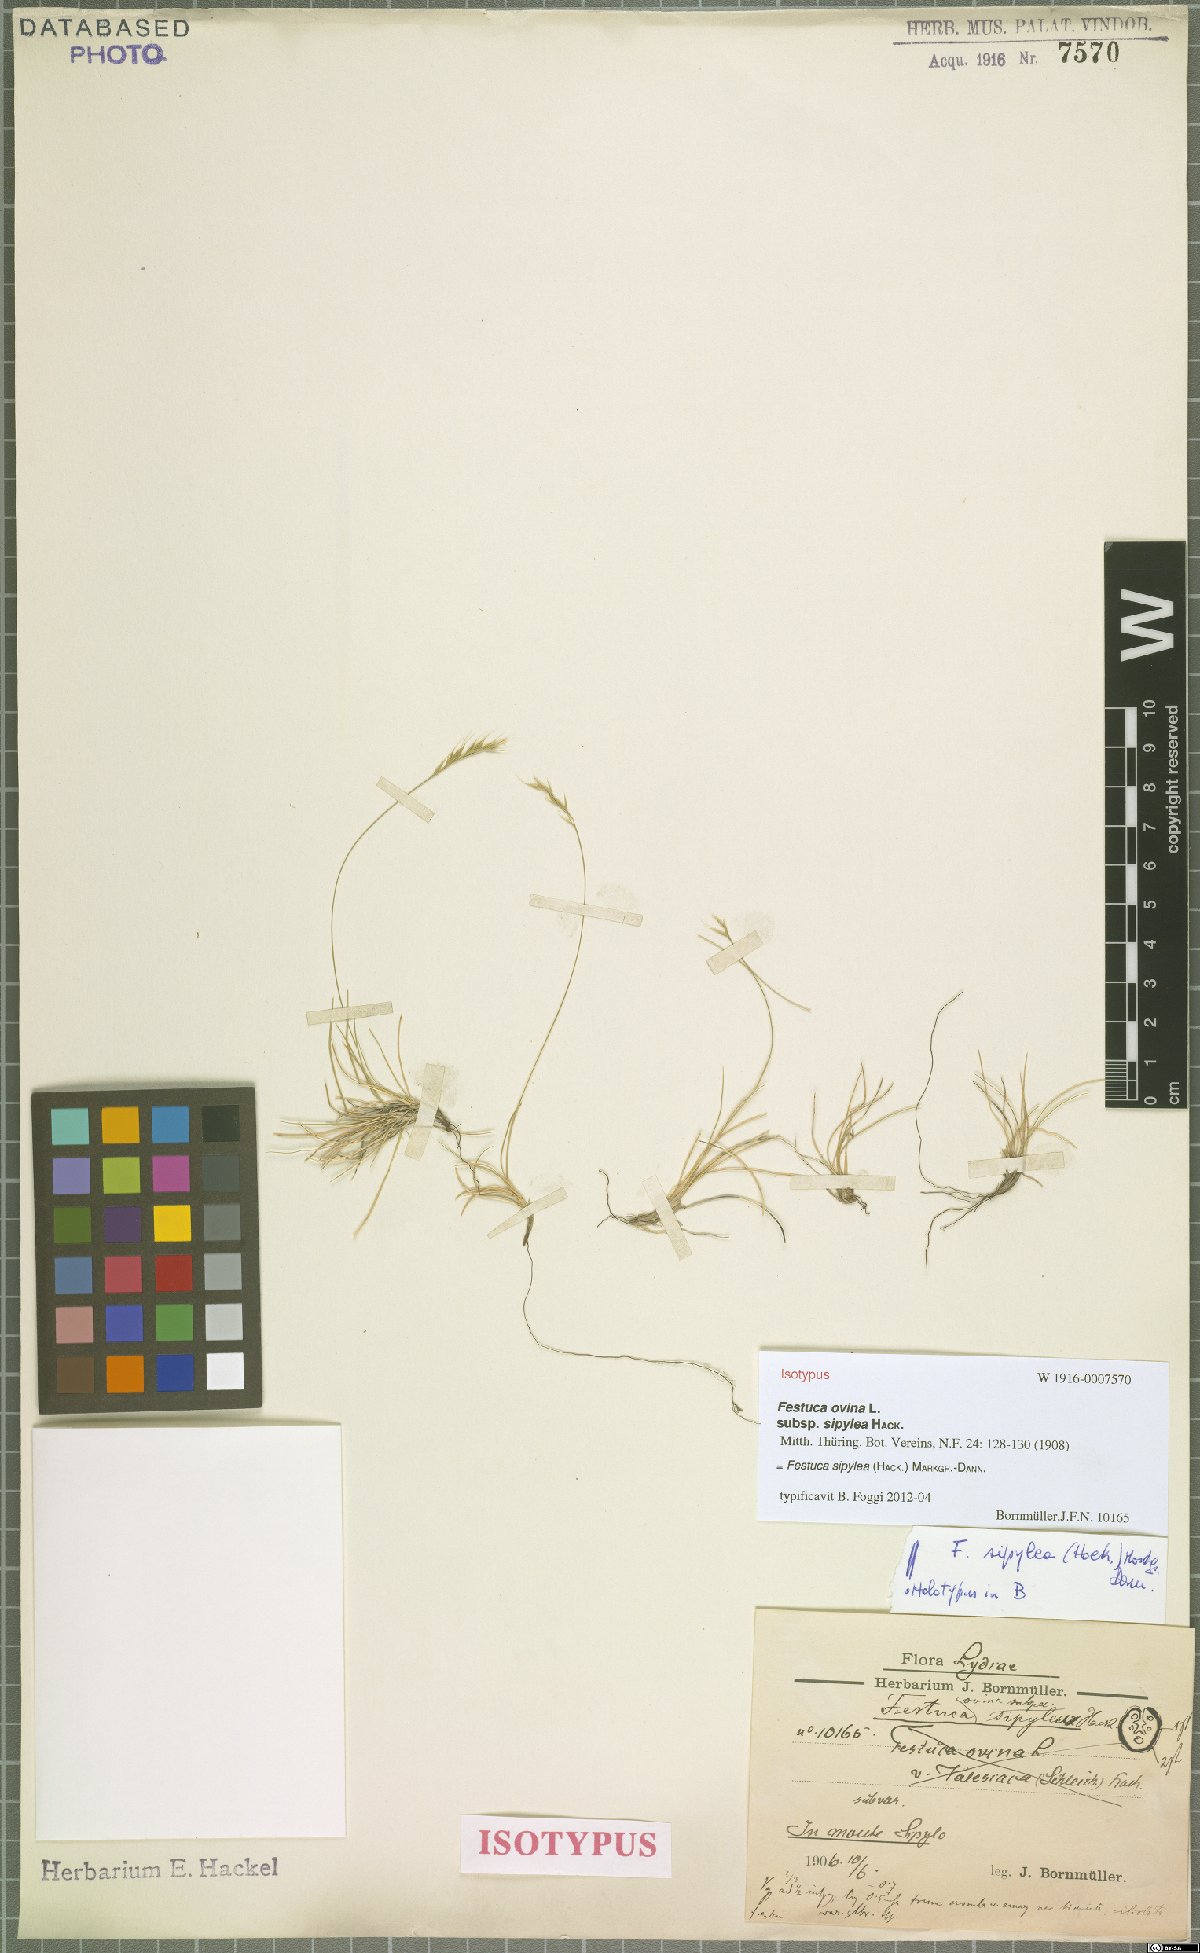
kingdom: Plantae
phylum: Tracheophyta
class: Liliopsida
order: Poales
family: Poaceae
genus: Festuca
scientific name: Festuca sipylea
